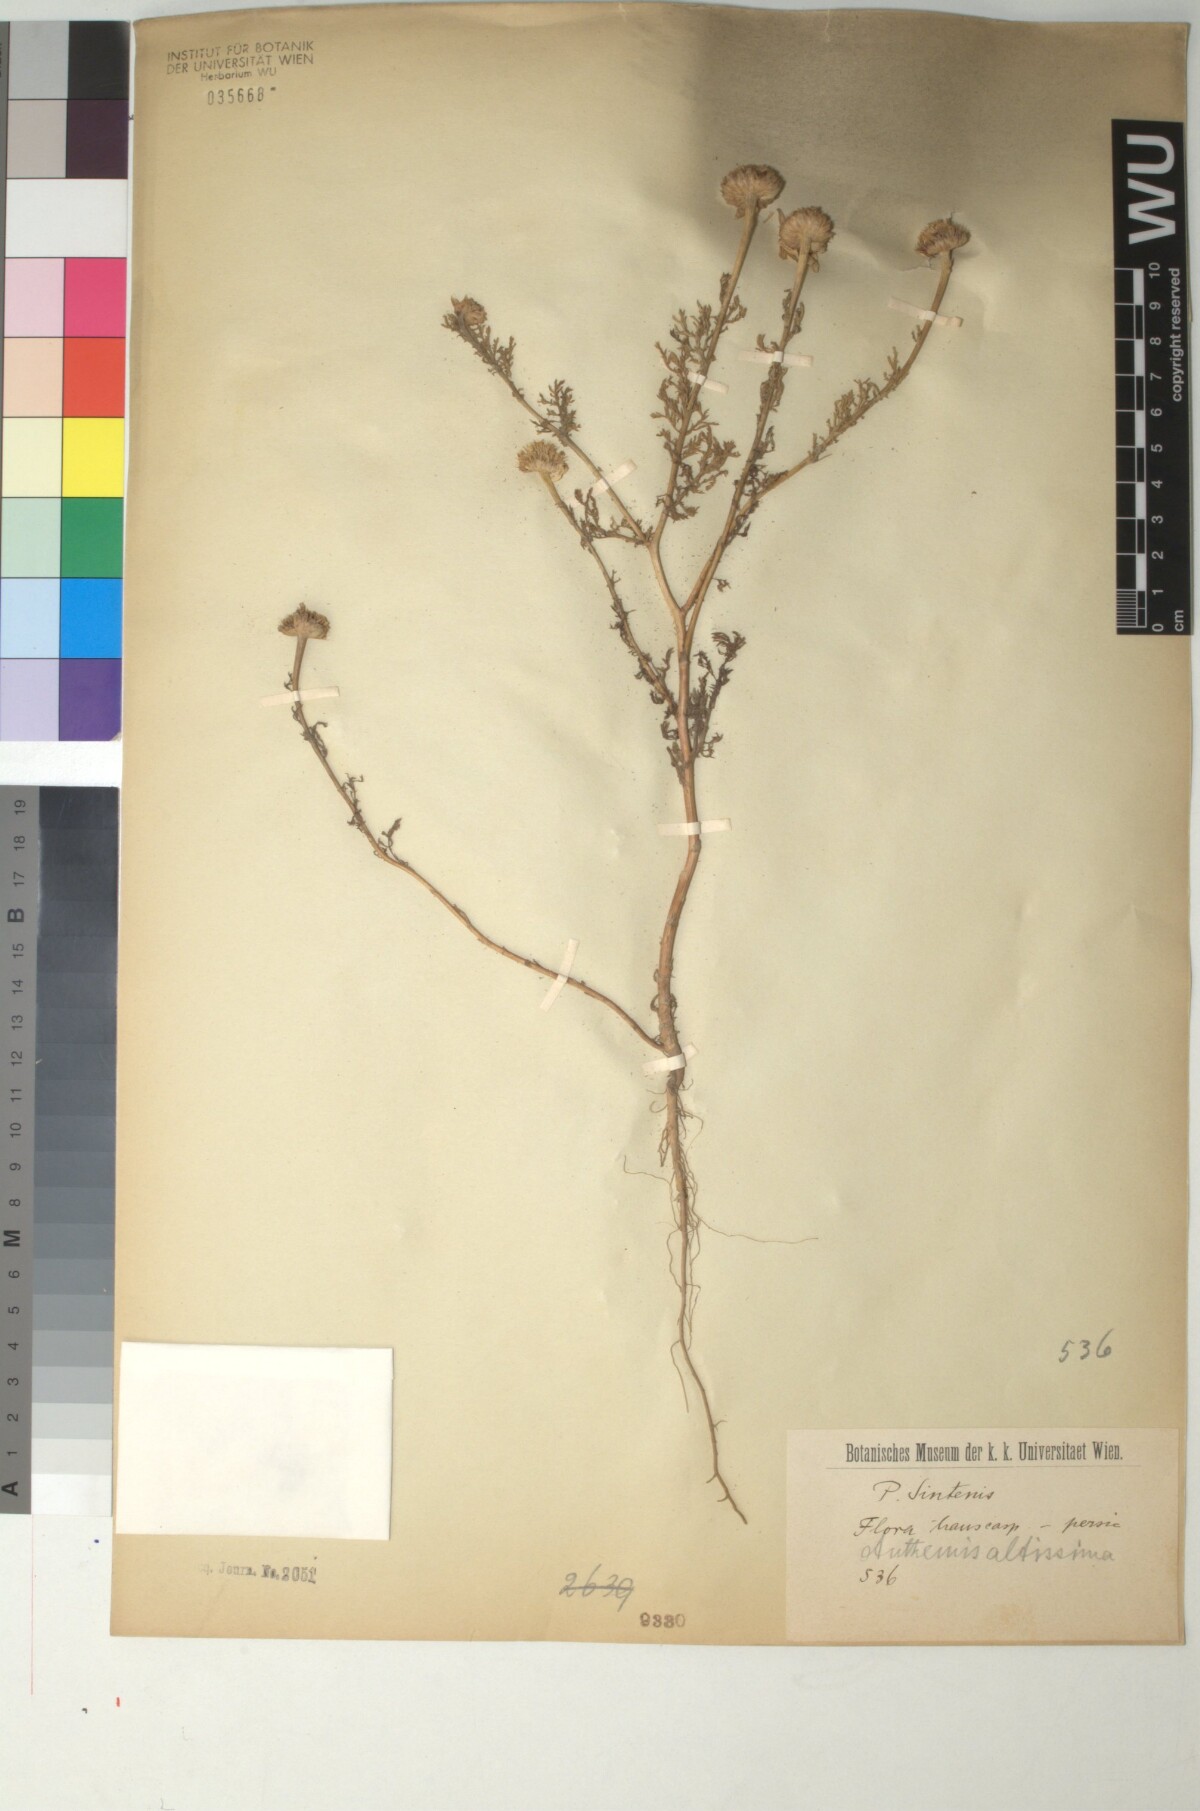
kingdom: Plantae
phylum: Tracheophyta
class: Magnoliopsida
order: Asterales
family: Asteraceae
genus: Cota
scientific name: Cota altissima
